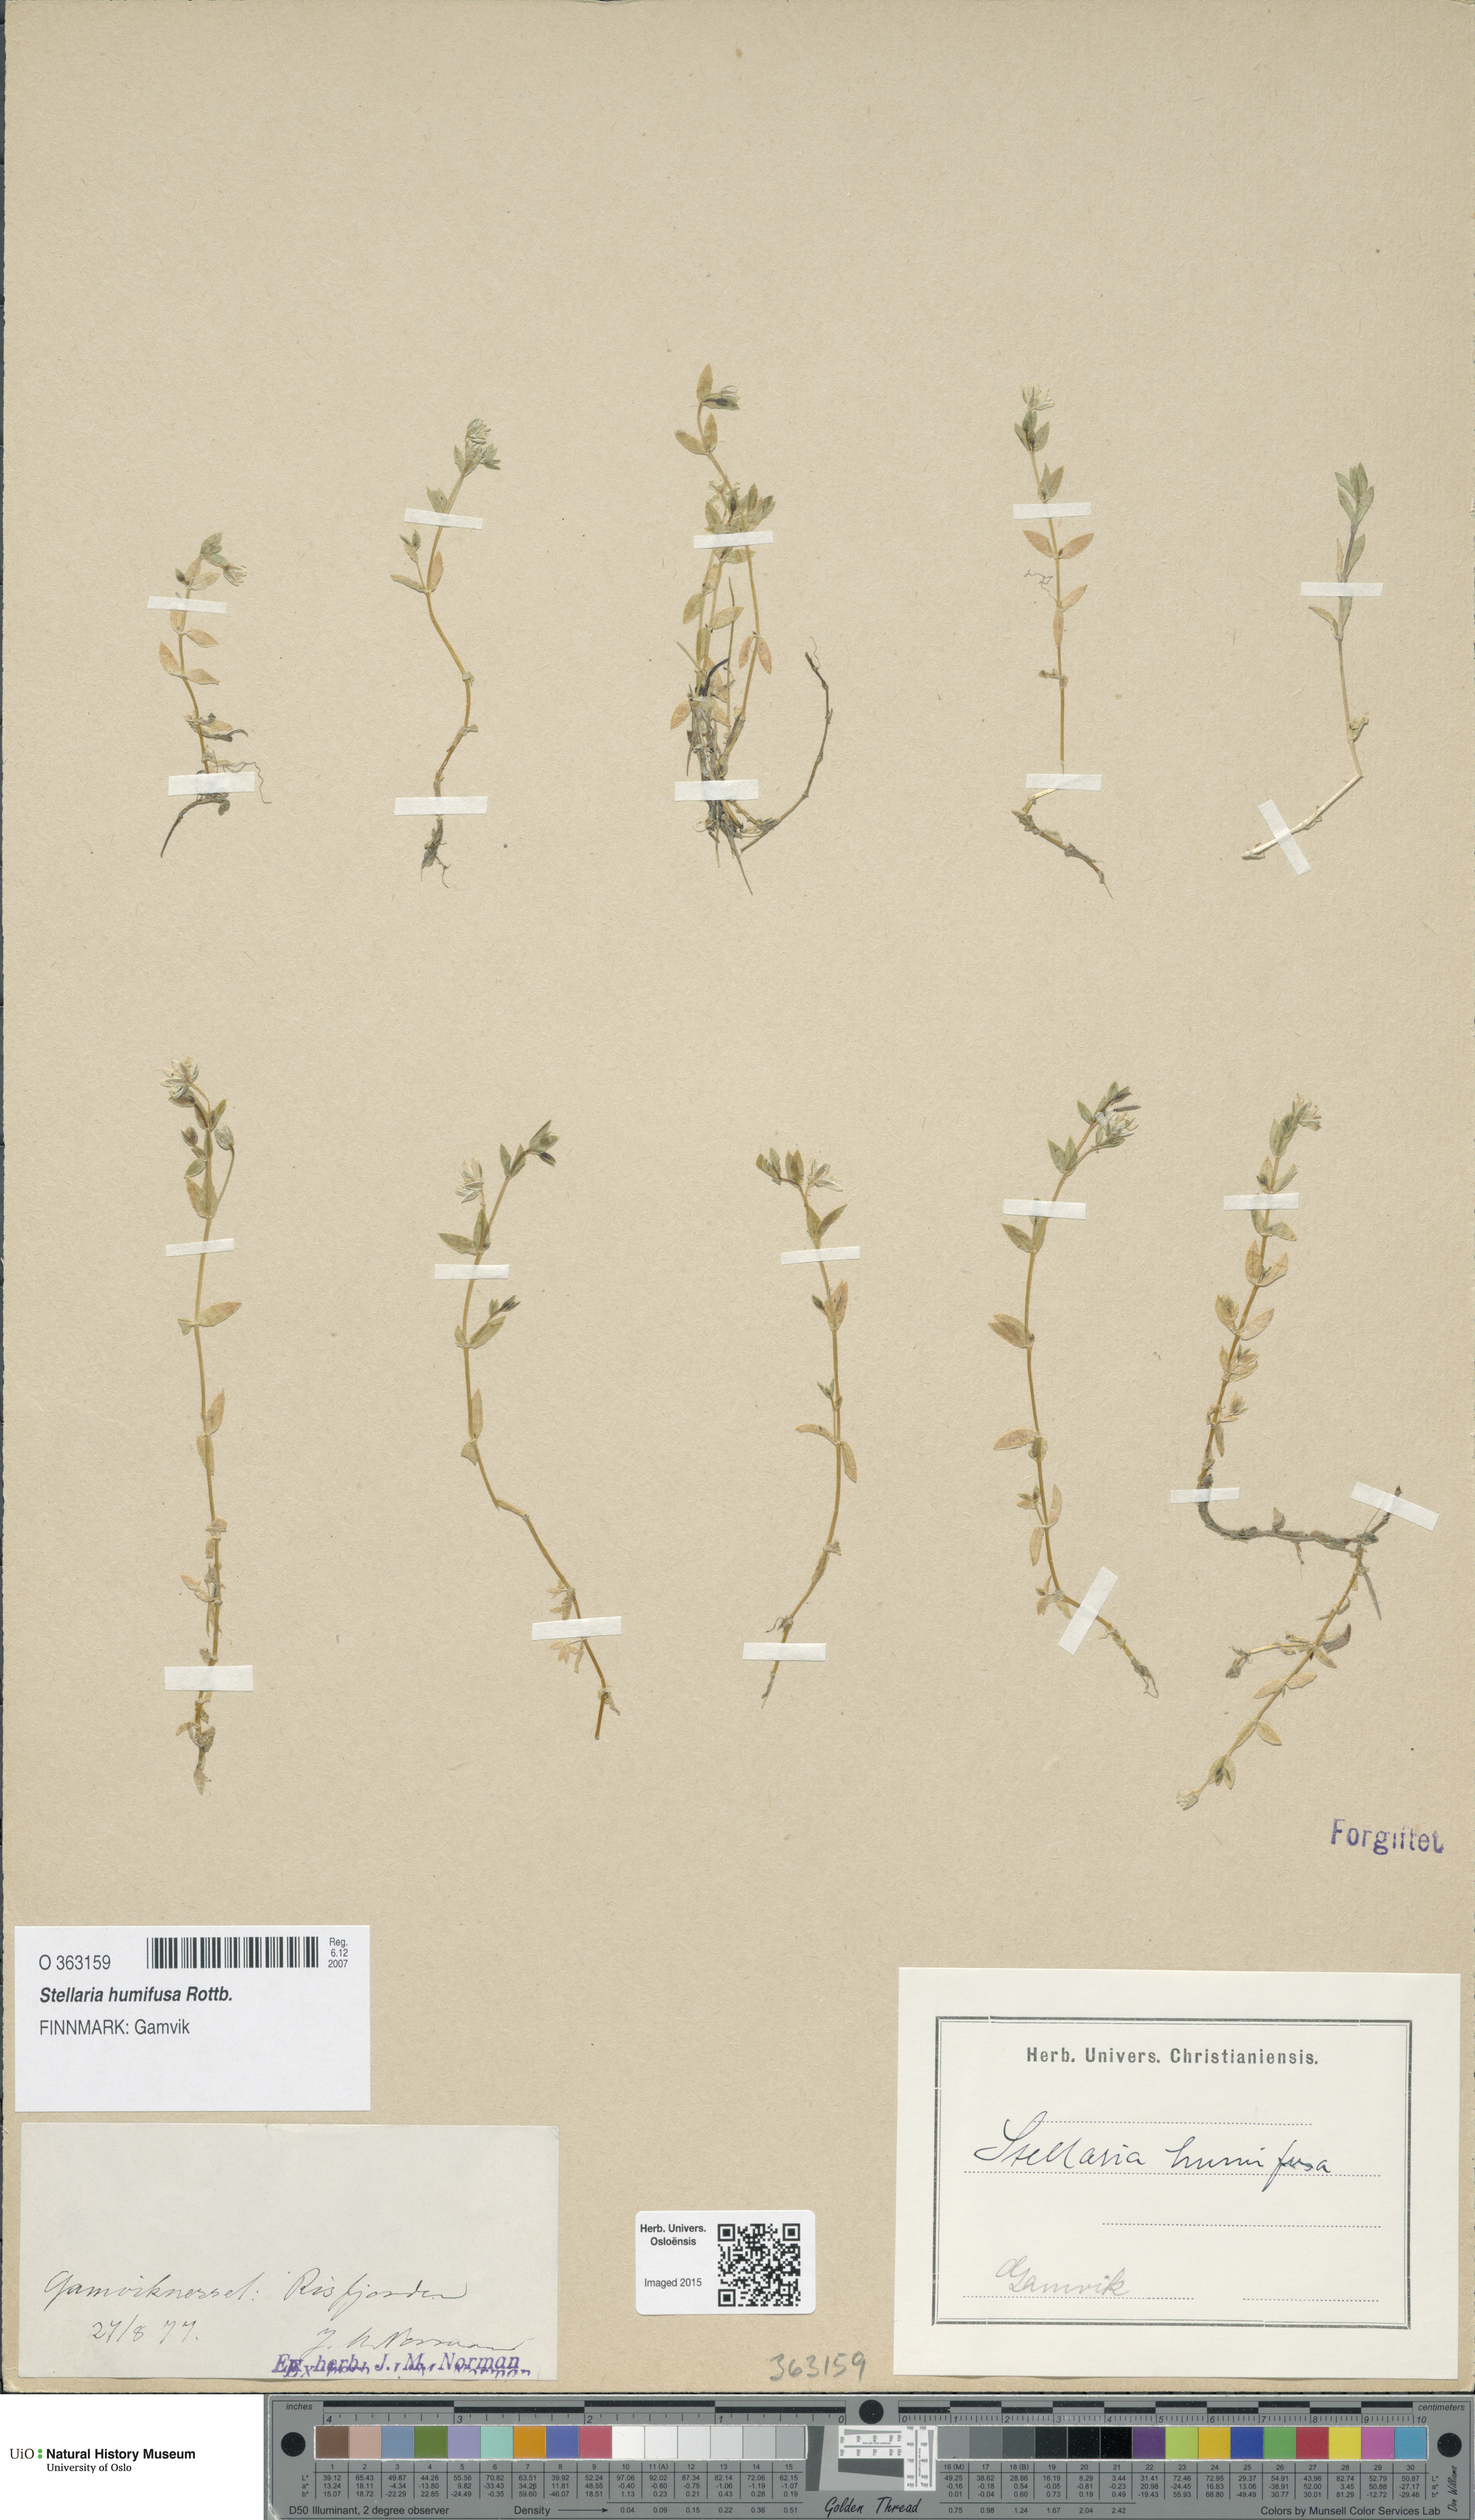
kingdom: Plantae
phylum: Tracheophyta
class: Magnoliopsida
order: Caryophyllales
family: Caryophyllaceae
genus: Stellaria
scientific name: Stellaria humifusa
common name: Creeping starwort
